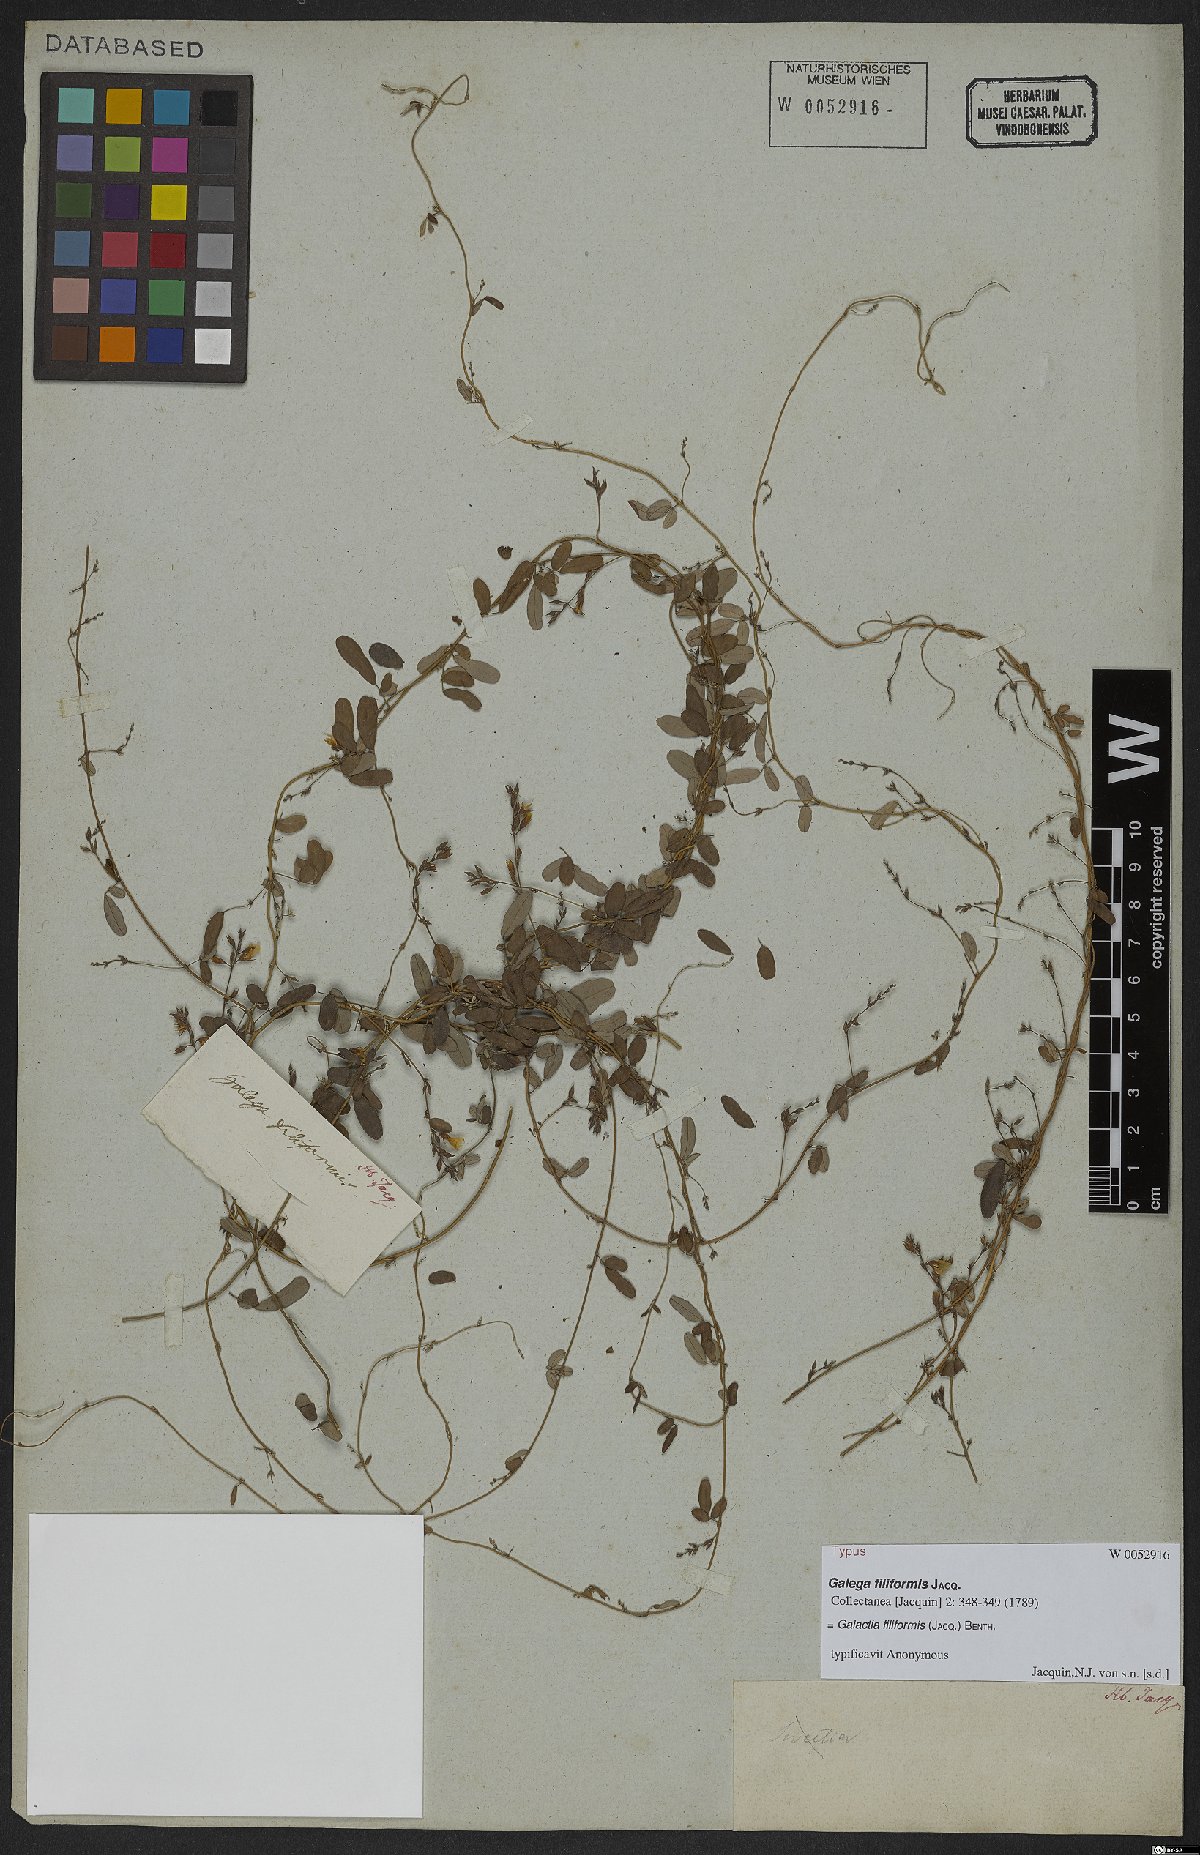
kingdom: Plantae
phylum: Tracheophyta
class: Magnoliopsida
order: Fabales
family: Fabaceae
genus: Galactia
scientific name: Galactia filiformis
